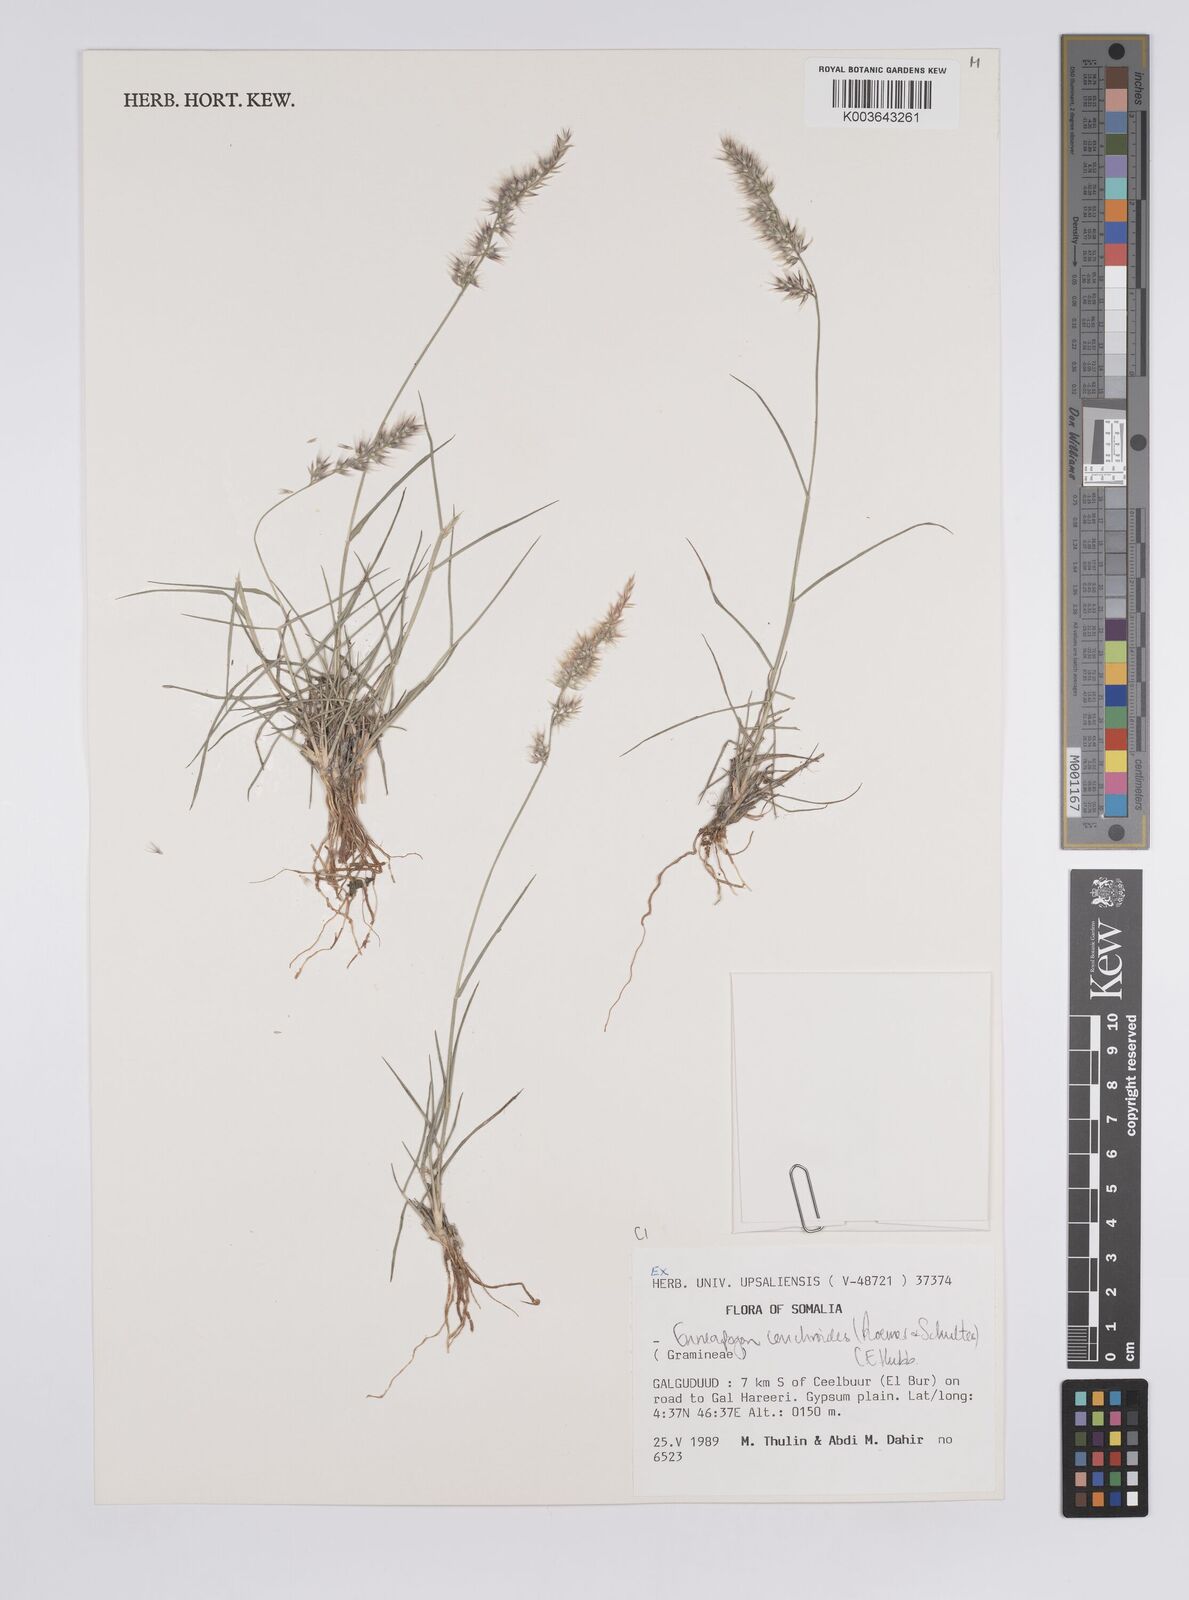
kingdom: Plantae
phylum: Tracheophyta
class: Liliopsida
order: Poales
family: Poaceae
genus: Enneapogon
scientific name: Enneapogon cenchroides
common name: Soft feather pappusgrass
